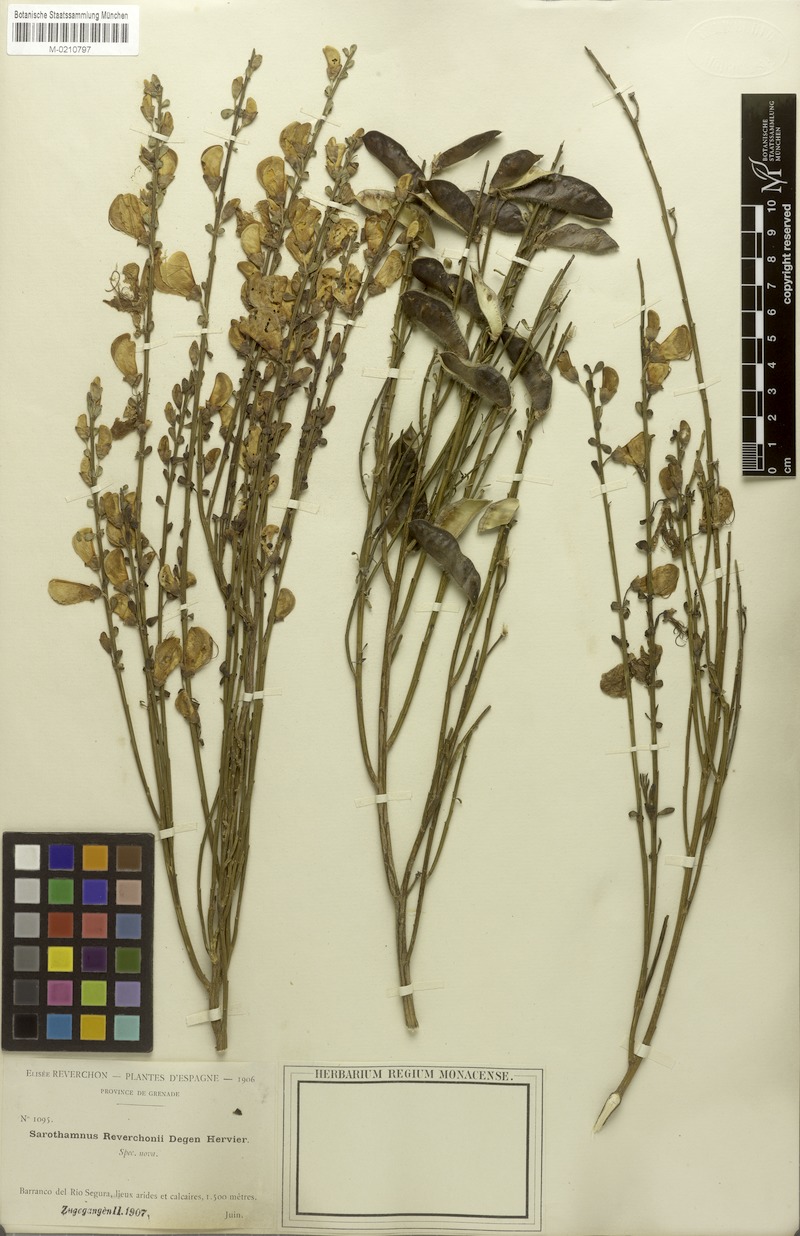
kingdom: Plantae
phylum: Tracheophyta
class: Magnoliopsida
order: Fabales
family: Fabaceae
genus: Cytisus
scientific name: Cytisus scoparius
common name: Scotch broom
